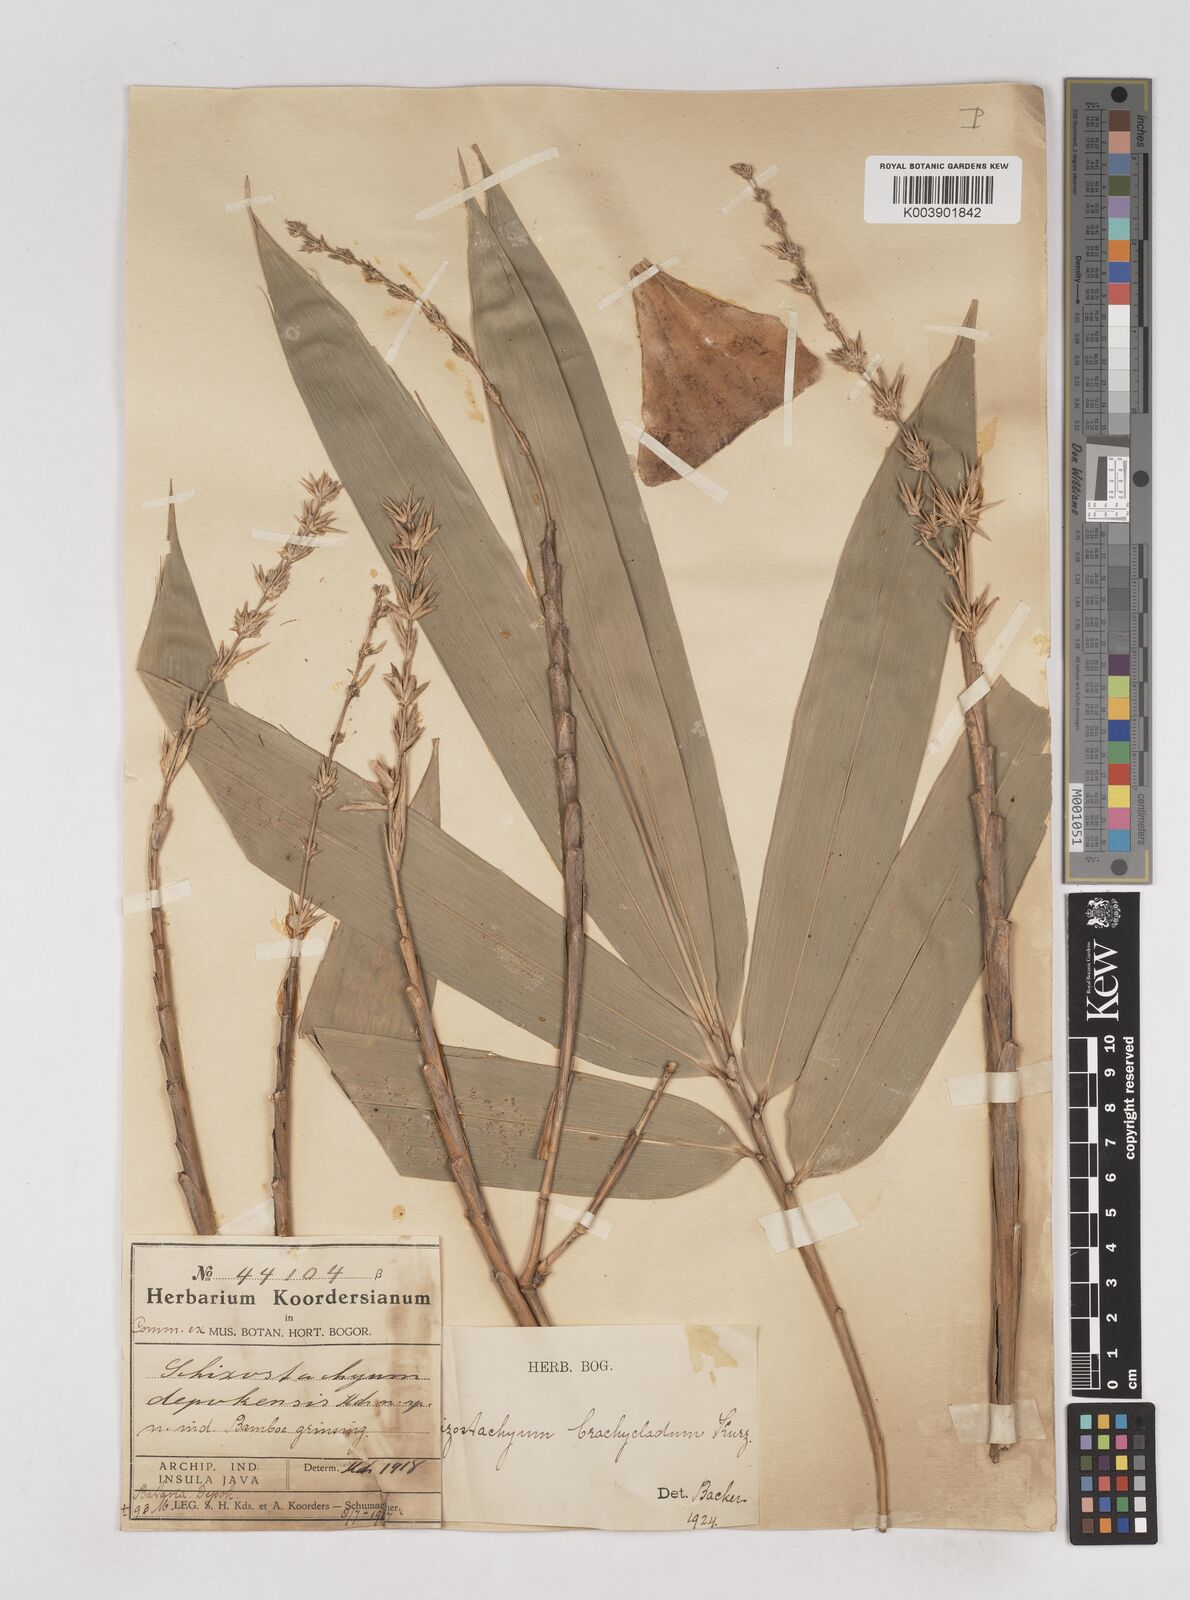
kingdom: Plantae
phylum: Tracheophyta
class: Liliopsida
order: Poales
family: Poaceae
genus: Schizostachyum
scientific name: Schizostachyum brachycladum
